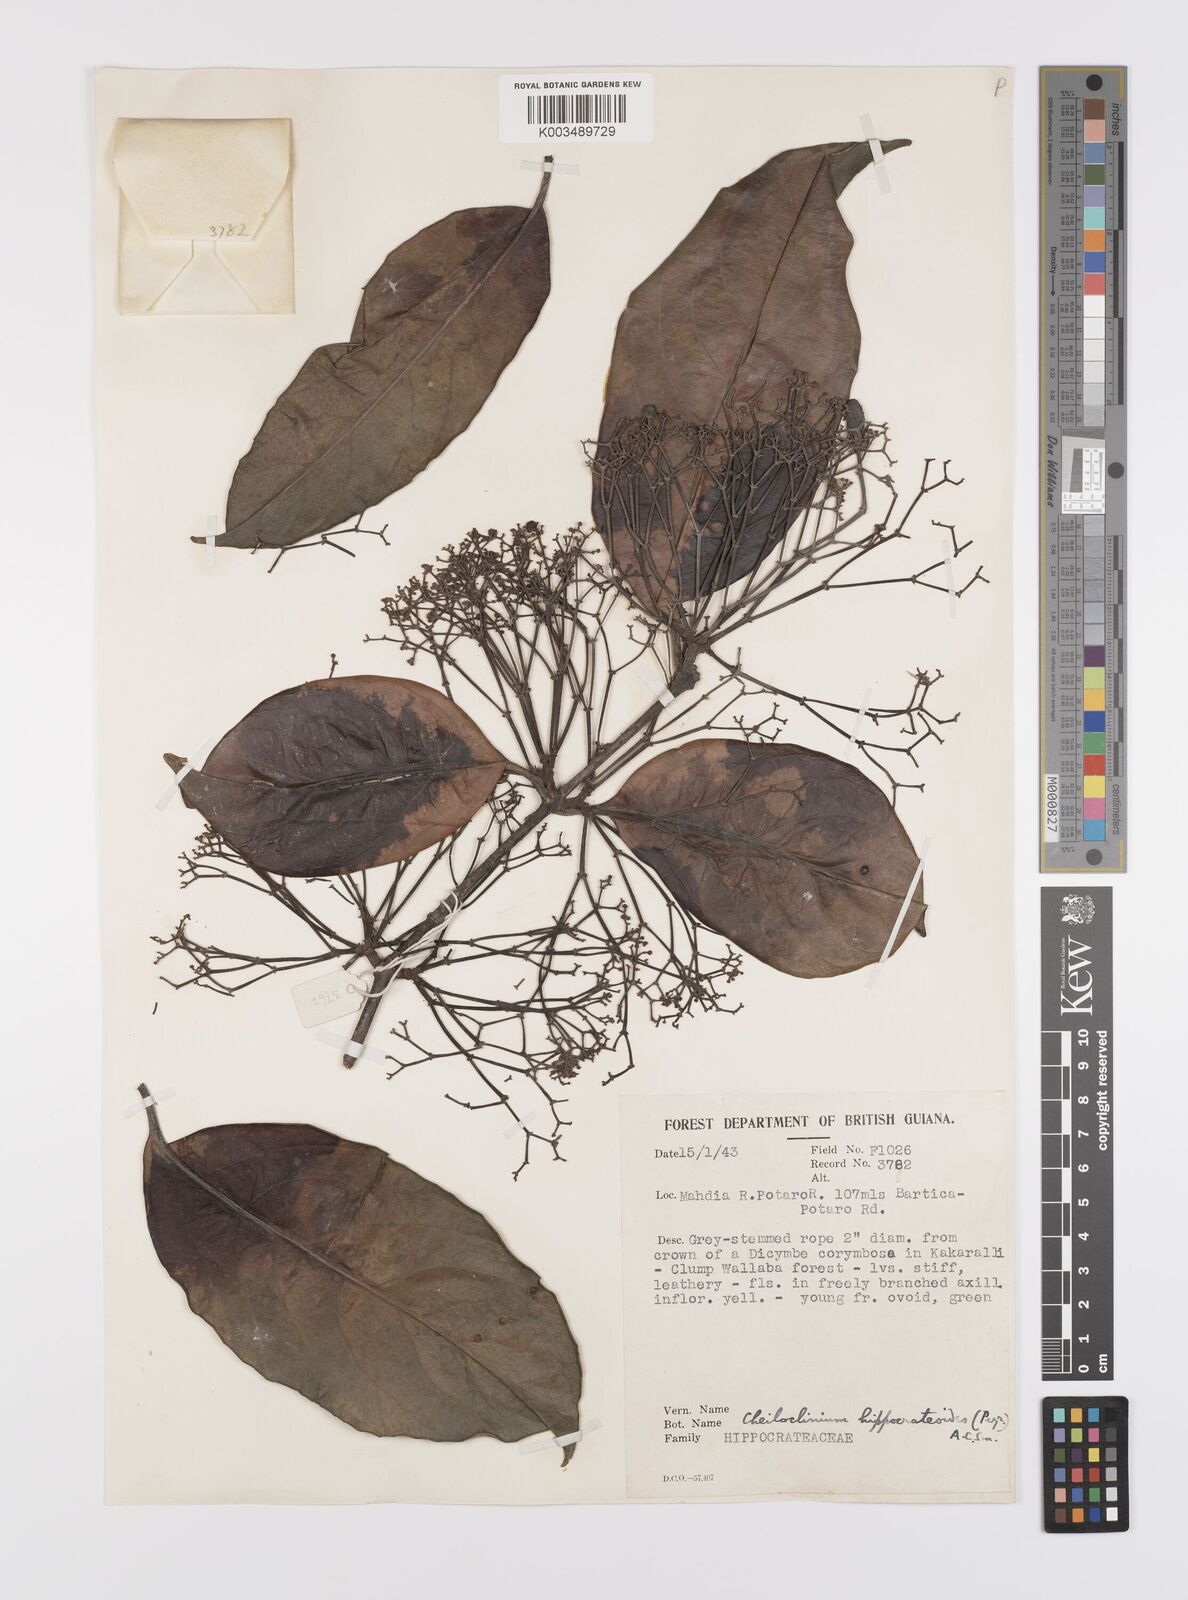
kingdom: Plantae
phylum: Tracheophyta
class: Magnoliopsida
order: Celastrales
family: Celastraceae
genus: Cheiloclinium
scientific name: Cheiloclinium hippocrateoides
